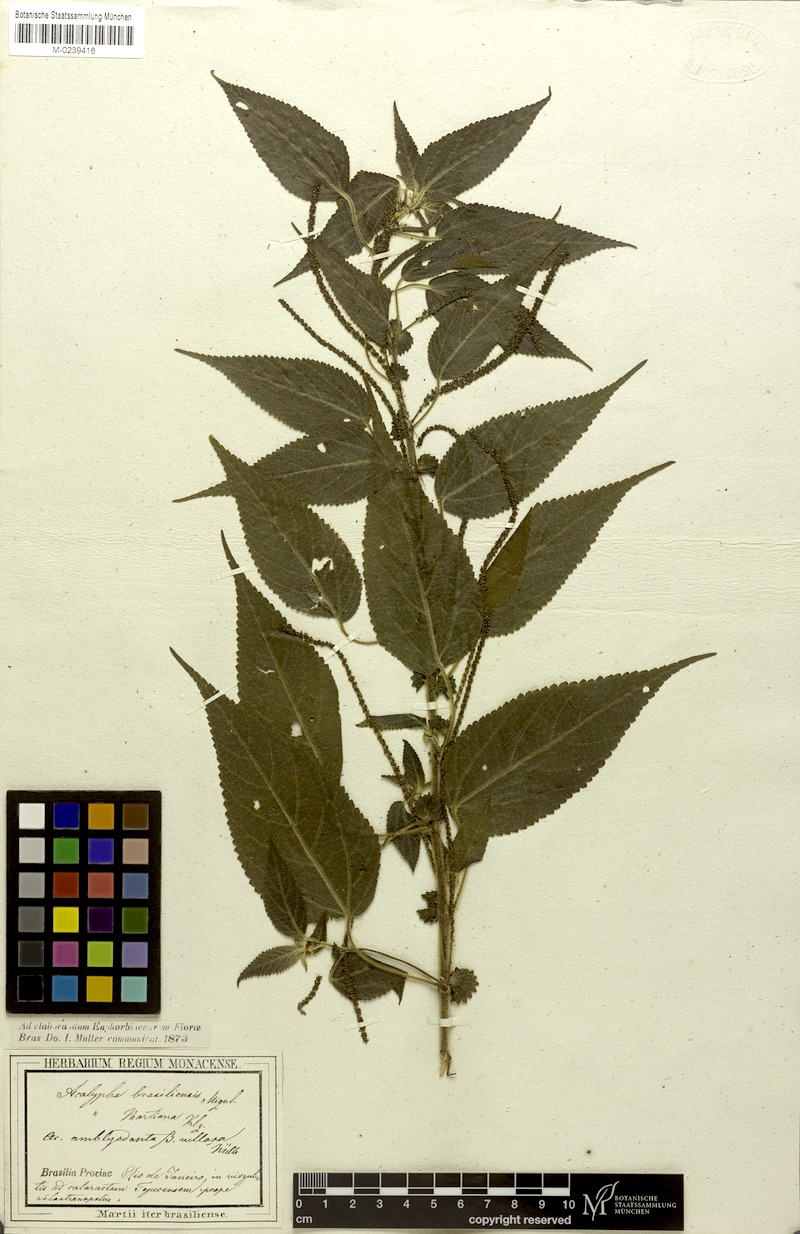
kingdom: Plantae
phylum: Tracheophyta
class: Magnoliopsida
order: Malpighiales
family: Euphorbiaceae
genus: Acalypha
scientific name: Acalypha amblyodonta
